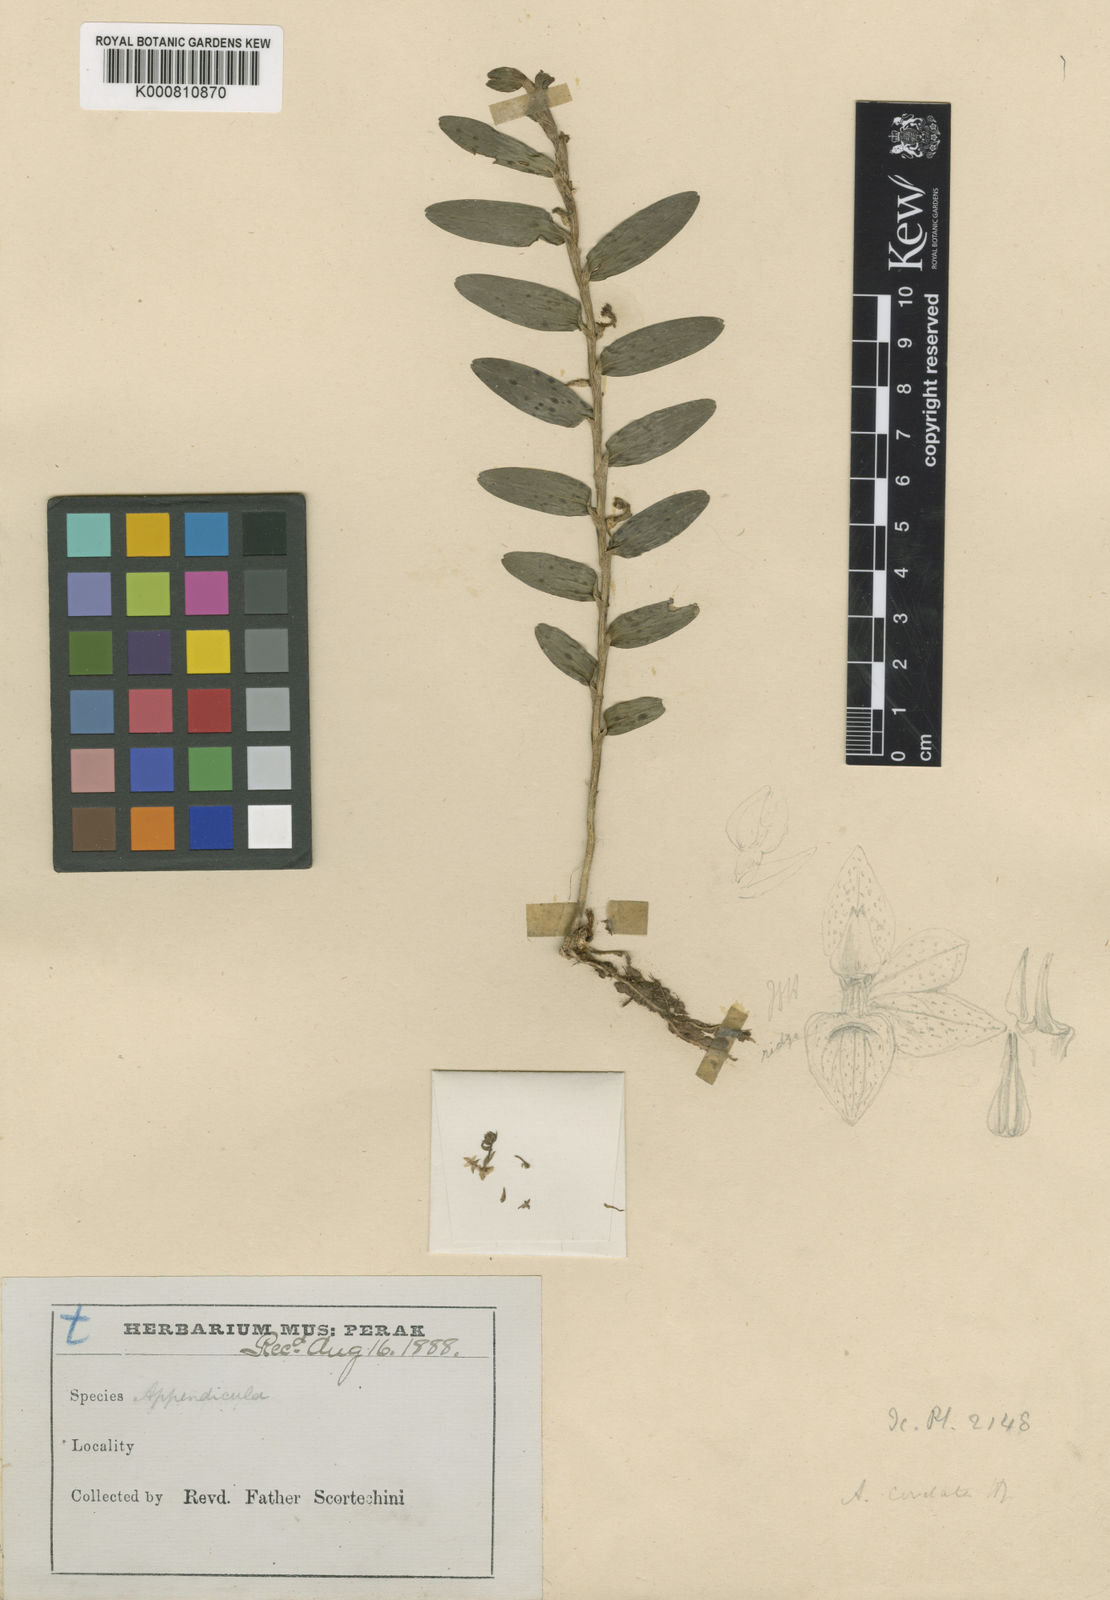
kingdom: Plantae
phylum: Tracheophyta
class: Liliopsida
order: Asparagales
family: Orchidaceae
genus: Appendicula
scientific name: Appendicula reflexa
